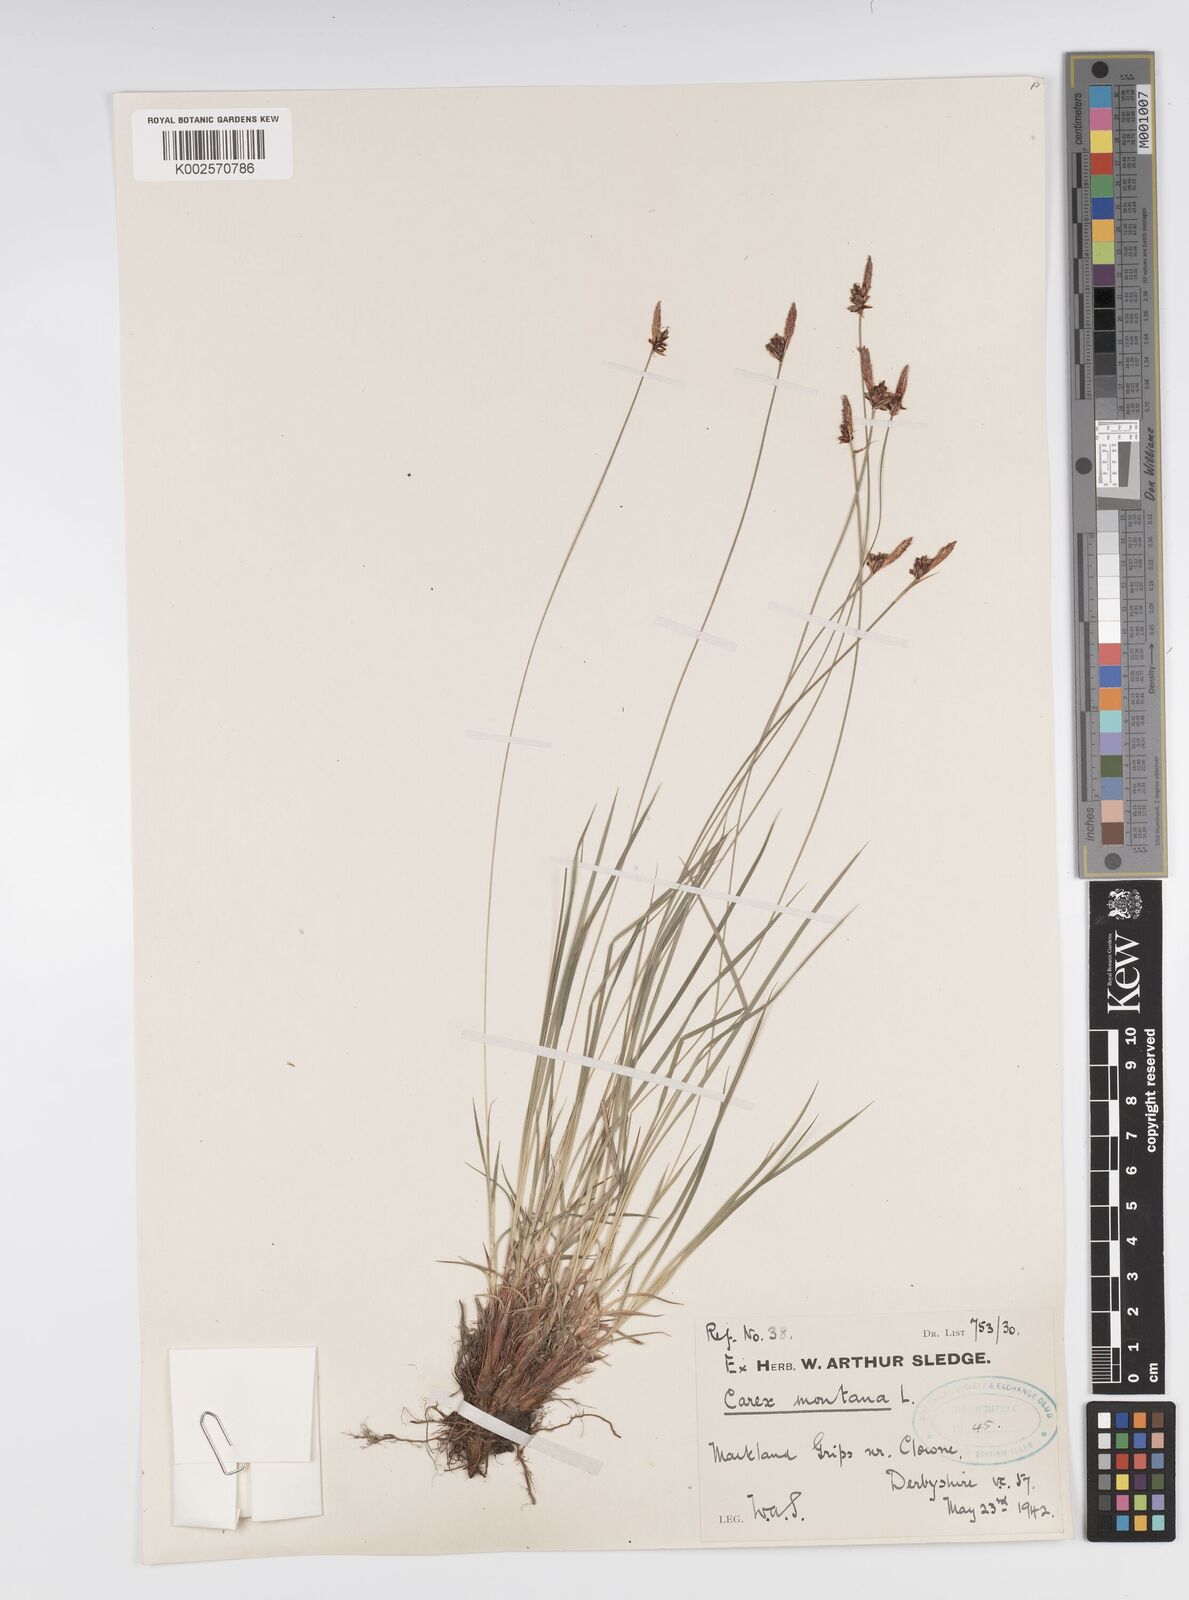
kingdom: Plantae
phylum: Tracheophyta
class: Liliopsida
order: Poales
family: Cyperaceae
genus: Carex
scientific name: Carex montana
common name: Soft-leaved sedge
